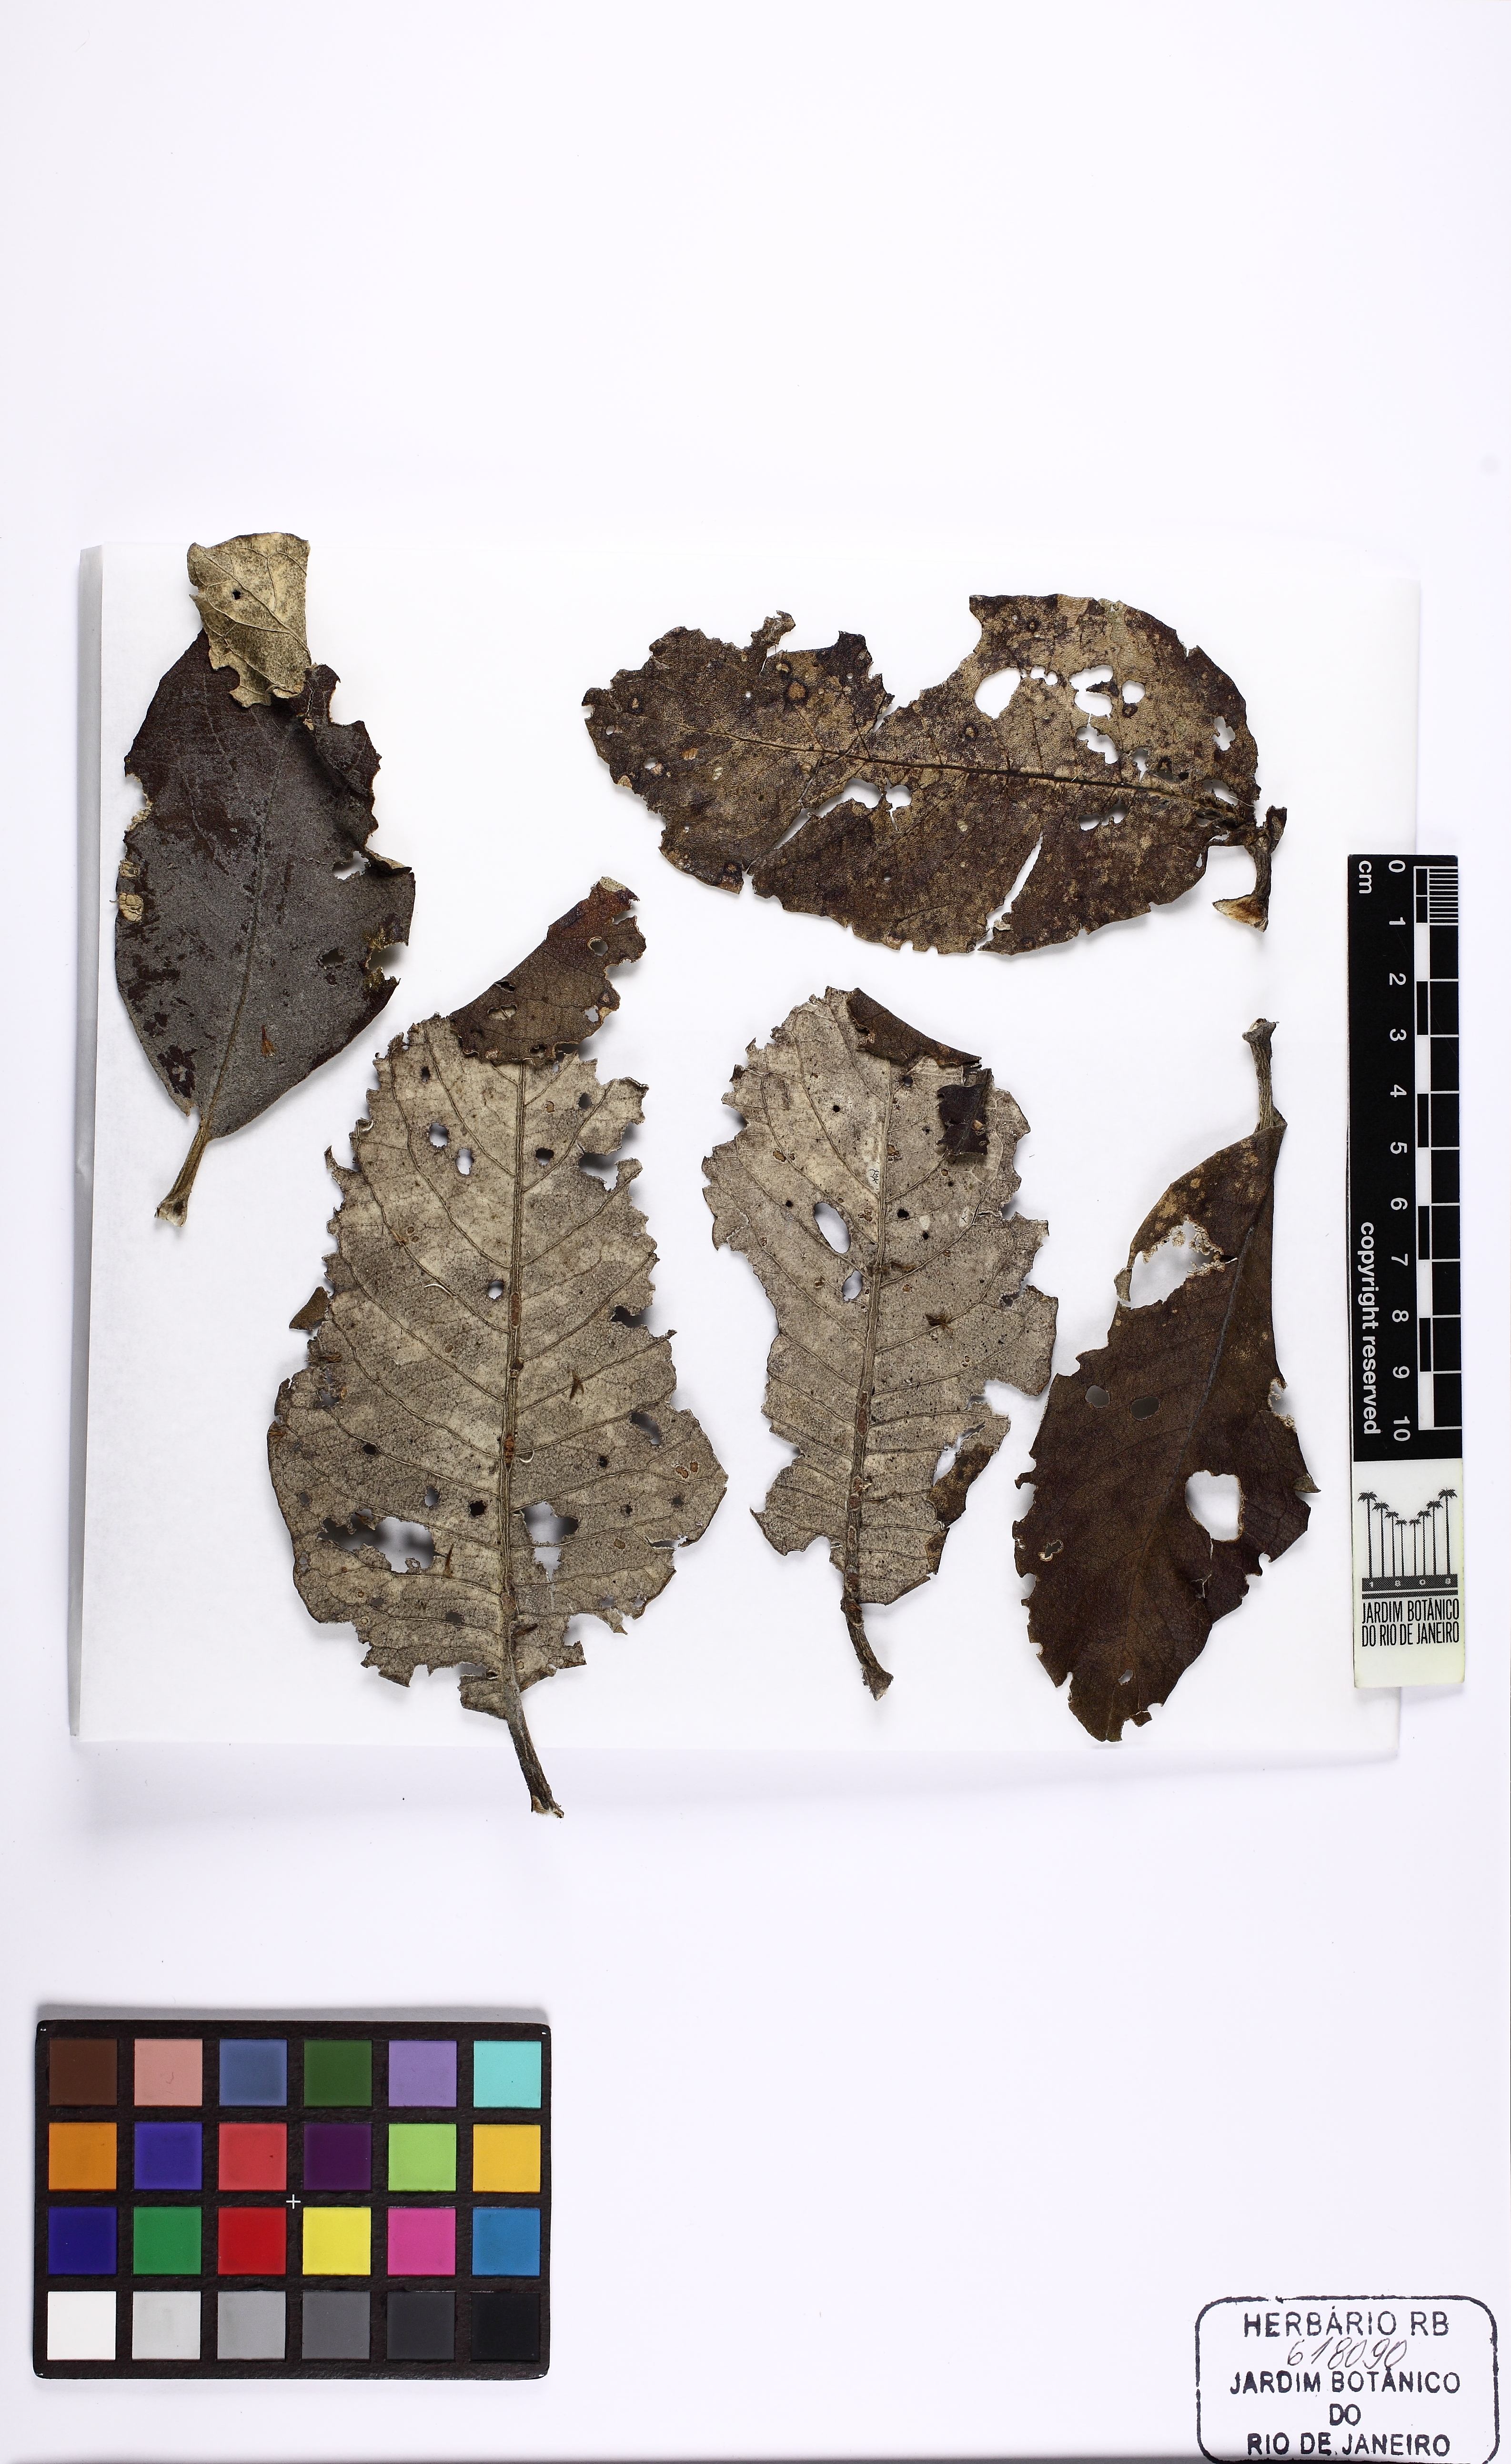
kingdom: Plantae
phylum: Tracheophyta
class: Magnoliopsida
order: Asterales
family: Asteraceae
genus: Eremanthus
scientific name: Eremanthus
